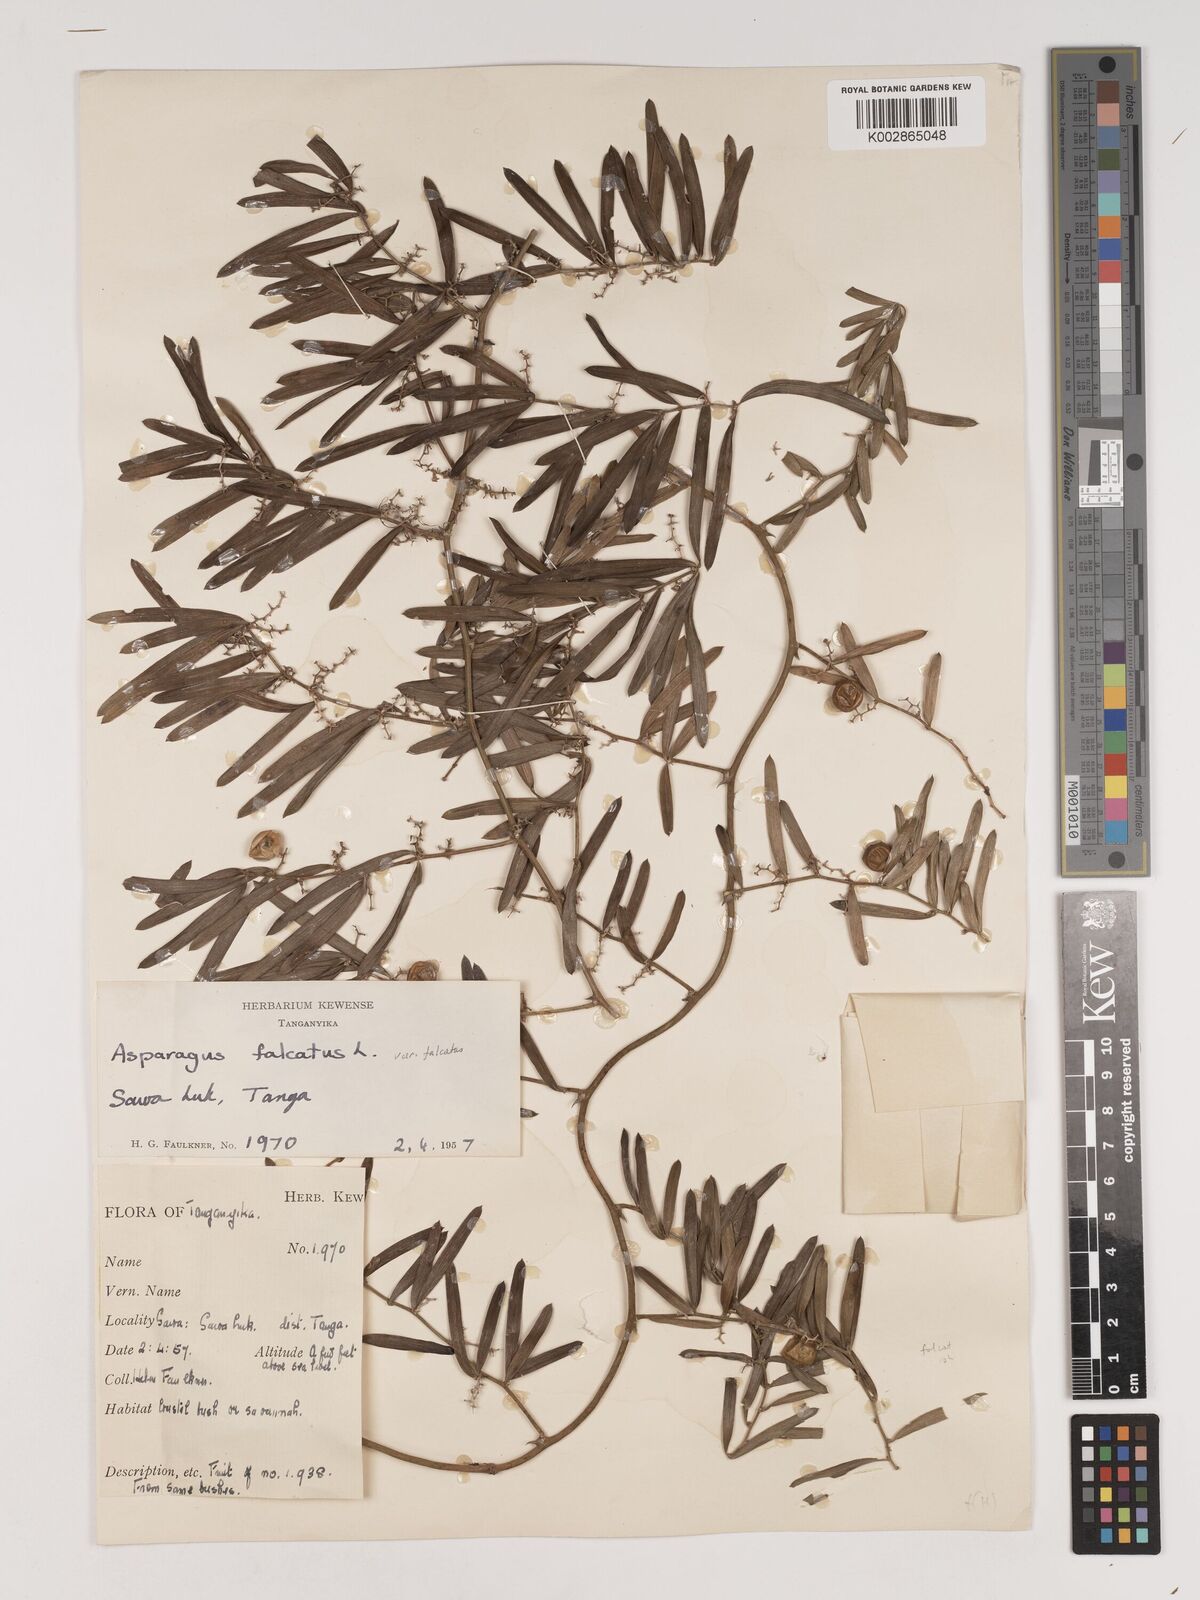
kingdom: Plantae
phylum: Tracheophyta
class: Liliopsida
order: Asparagales
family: Asparagaceae
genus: Asparagus
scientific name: Asparagus falcatus
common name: Asparagus
